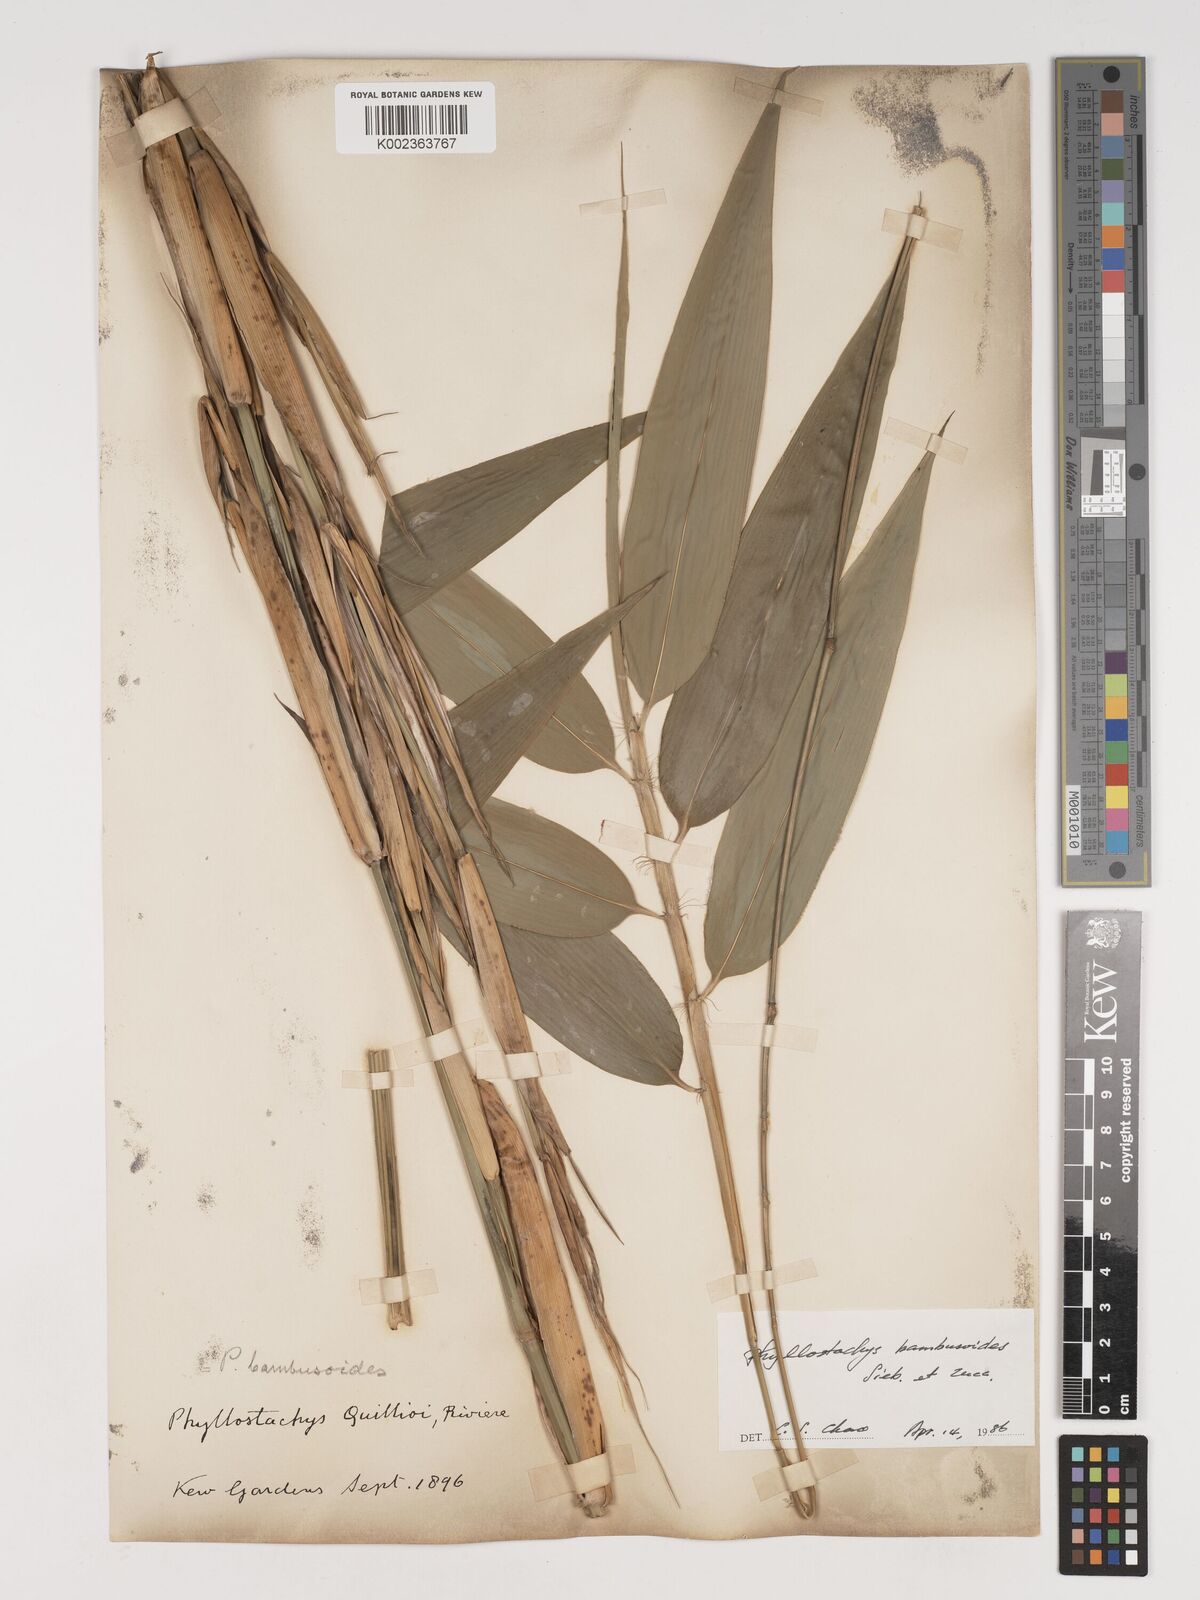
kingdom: Plantae
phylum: Tracheophyta
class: Liliopsida
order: Poales
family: Poaceae
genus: Phyllostachys
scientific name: Phyllostachys reticulata
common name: Bamboo
